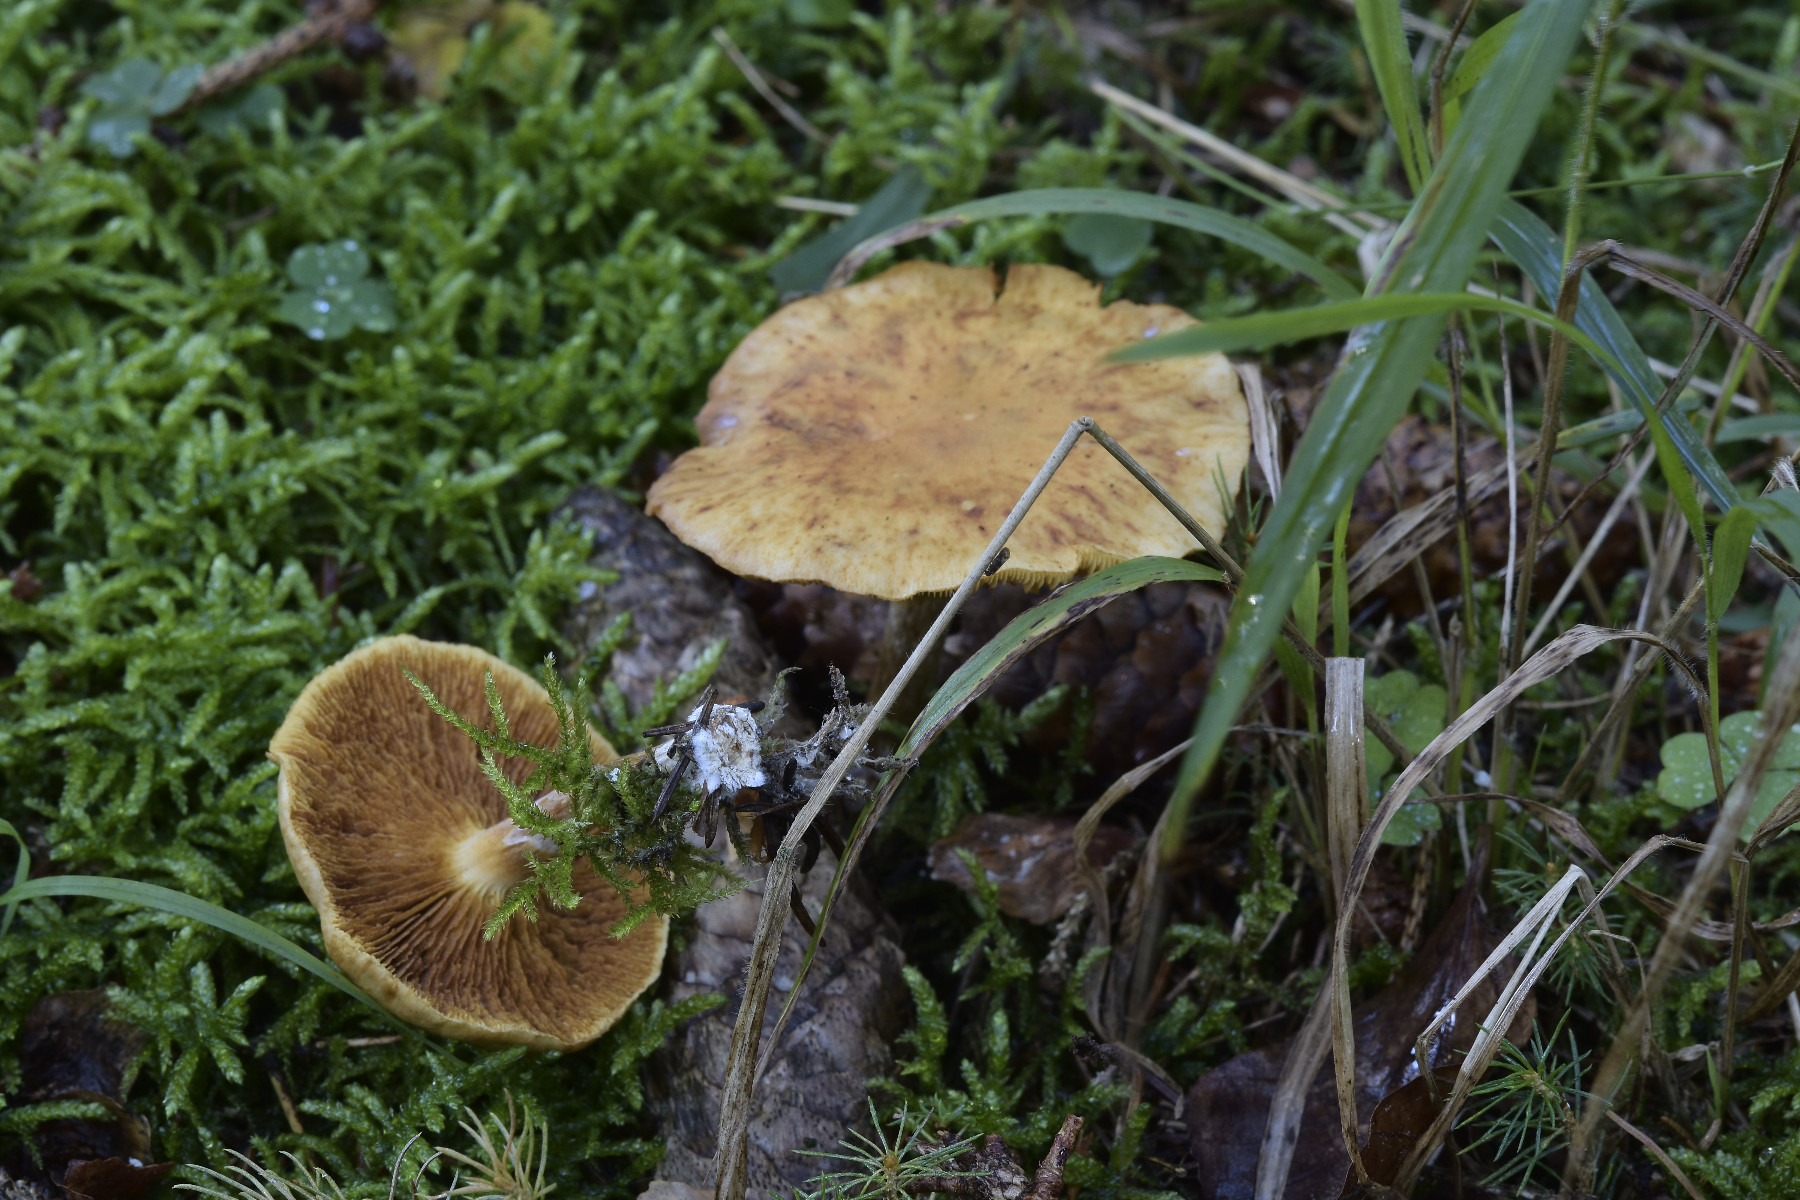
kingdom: Fungi
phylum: Basidiomycota
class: Agaricomycetes
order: Agaricales
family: Hymenogastraceae
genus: Gymnopilus
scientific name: Gymnopilus penetrans
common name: plettet flammehat
